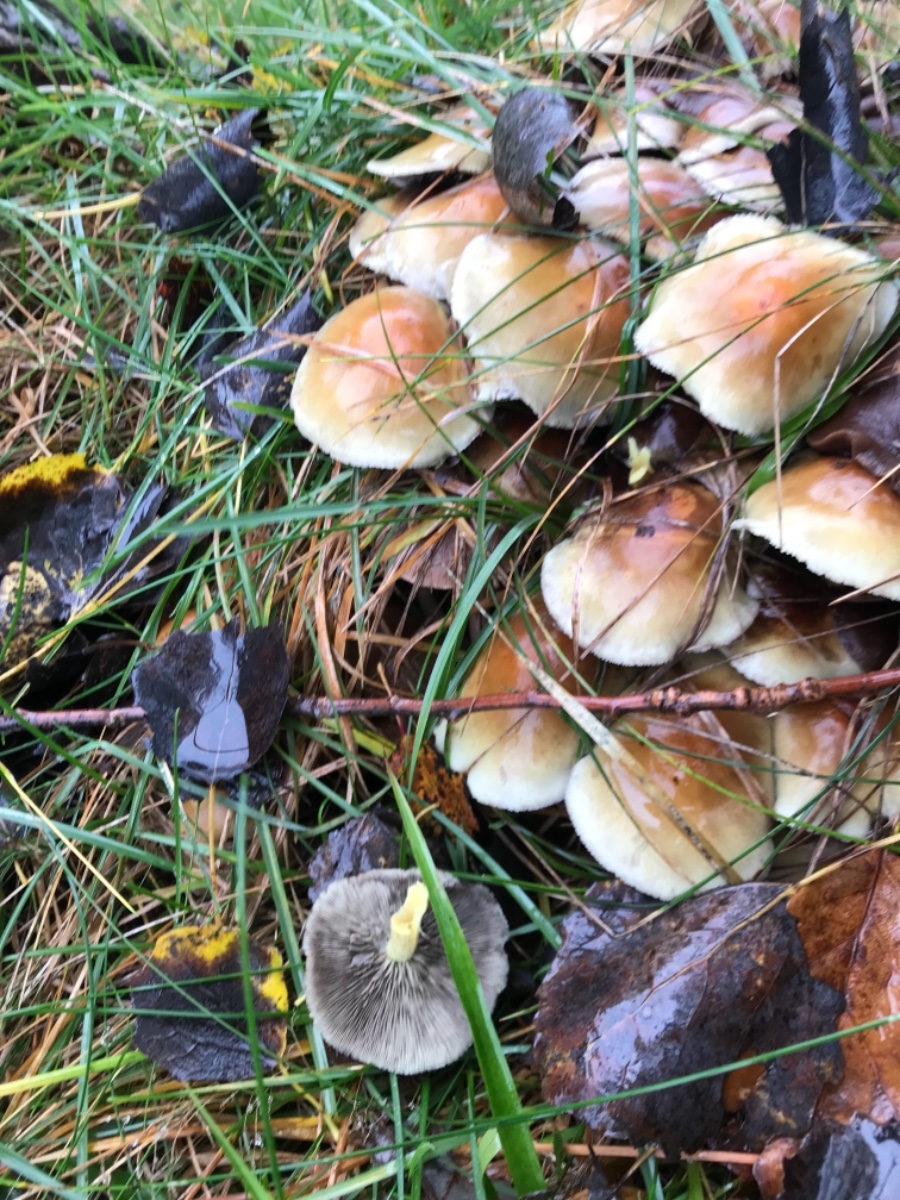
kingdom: Fungi
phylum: Basidiomycota
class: Agaricomycetes
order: Agaricales
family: Strophariaceae
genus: Hypholoma
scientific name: Hypholoma fasciculare
